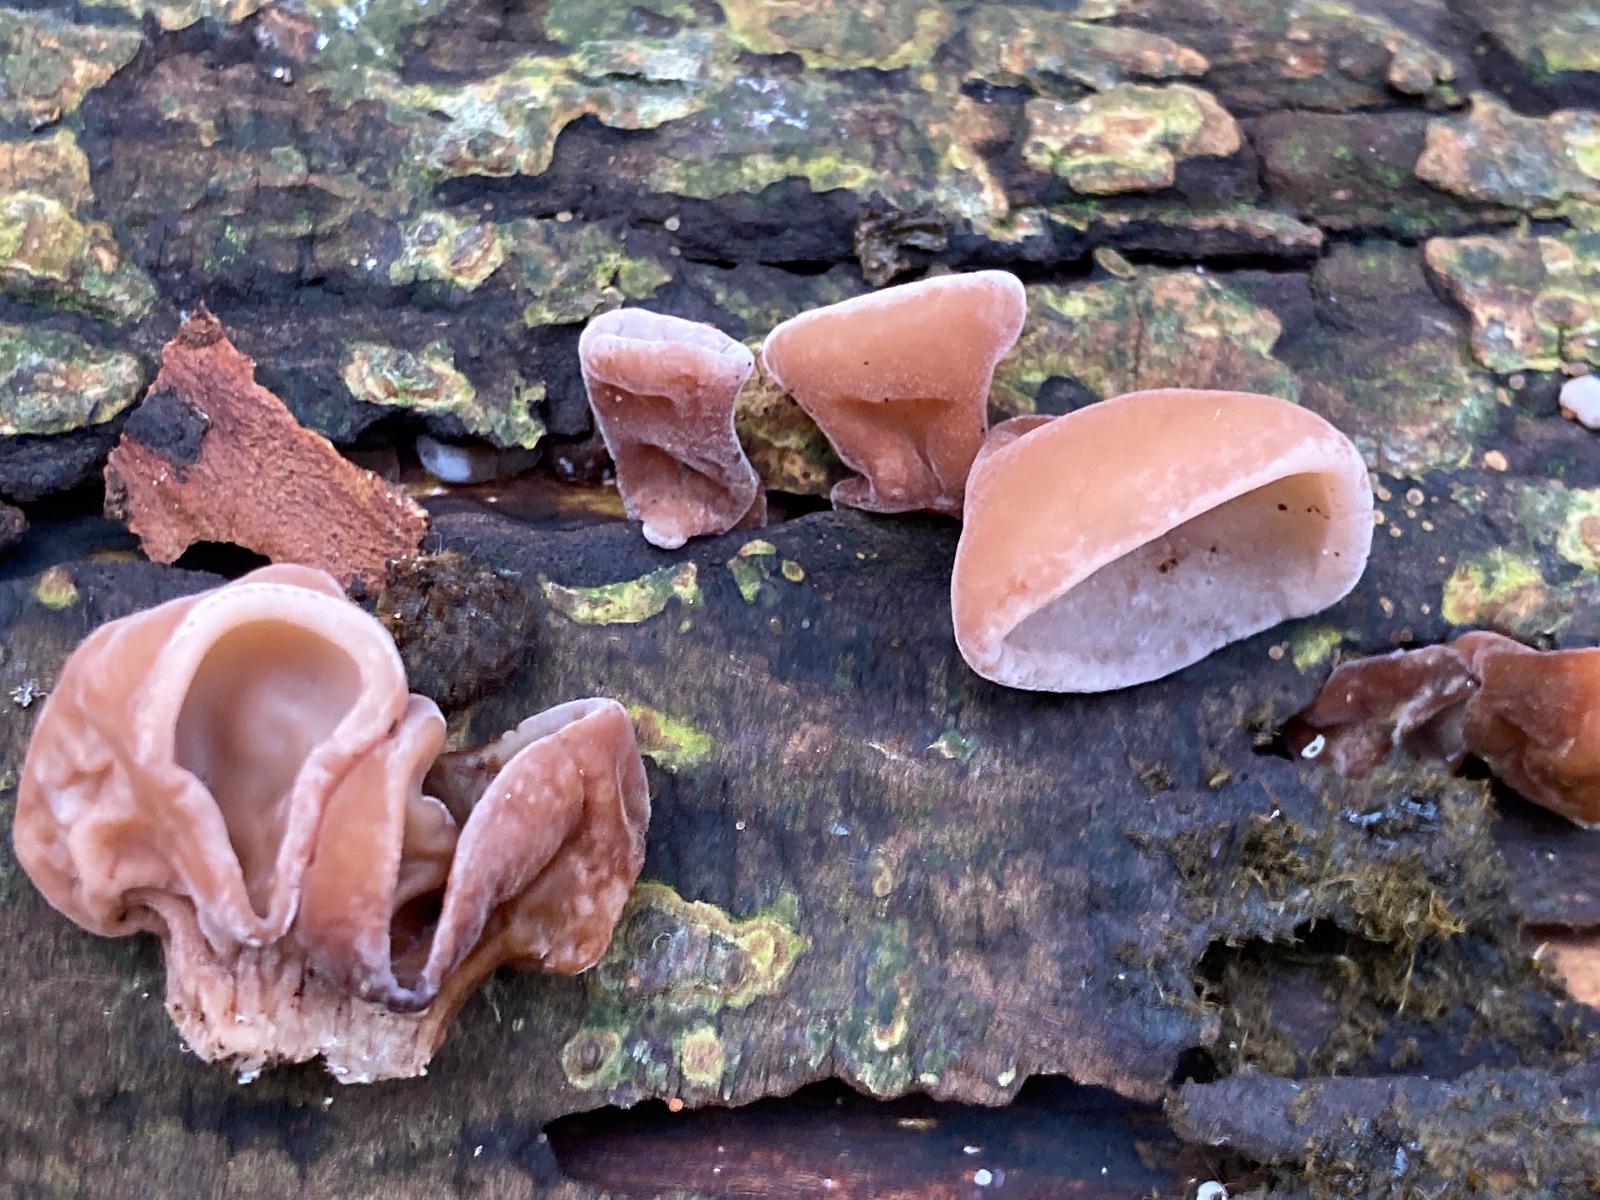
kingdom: Fungi
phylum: Basidiomycota
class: Agaricomycetes
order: Auriculariales
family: Auriculariaceae
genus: Auricularia
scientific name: Auricularia auricula-judae
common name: almindelig judasøre
